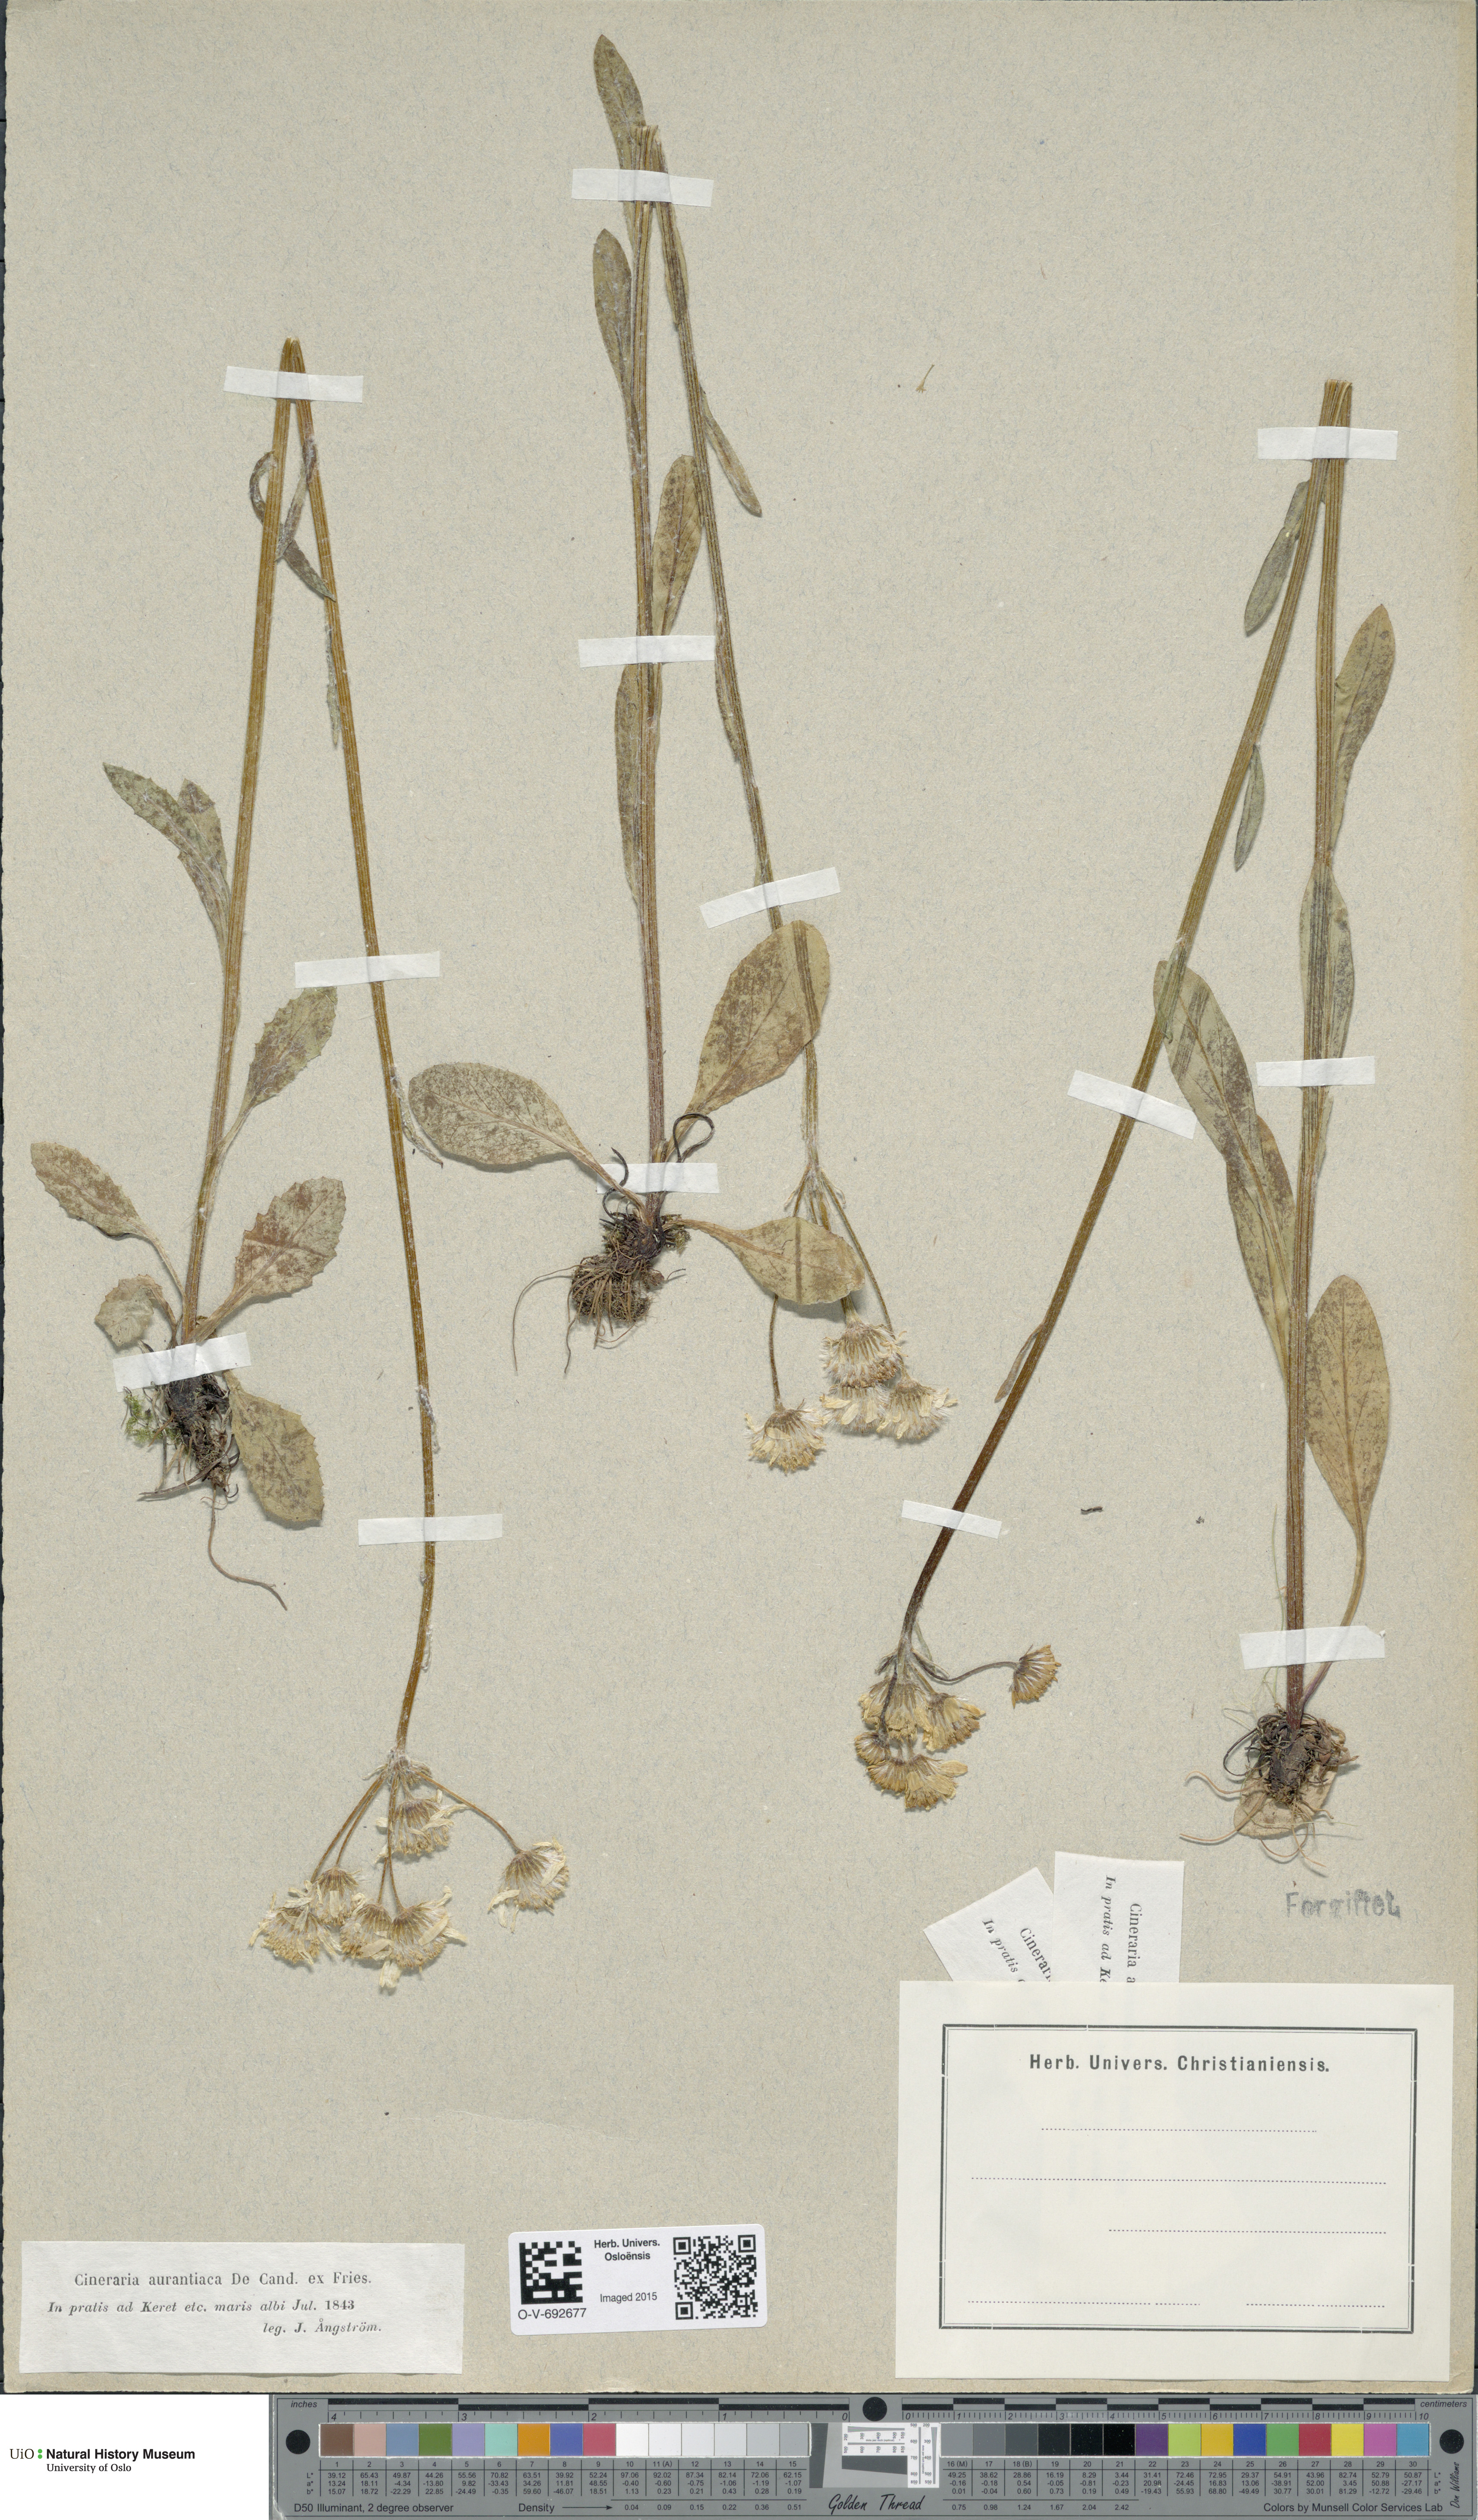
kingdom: Plantae
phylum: Tracheophyta
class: Magnoliopsida
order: Asterales
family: Asteraceae
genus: Tephroseris
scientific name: Tephroseris
